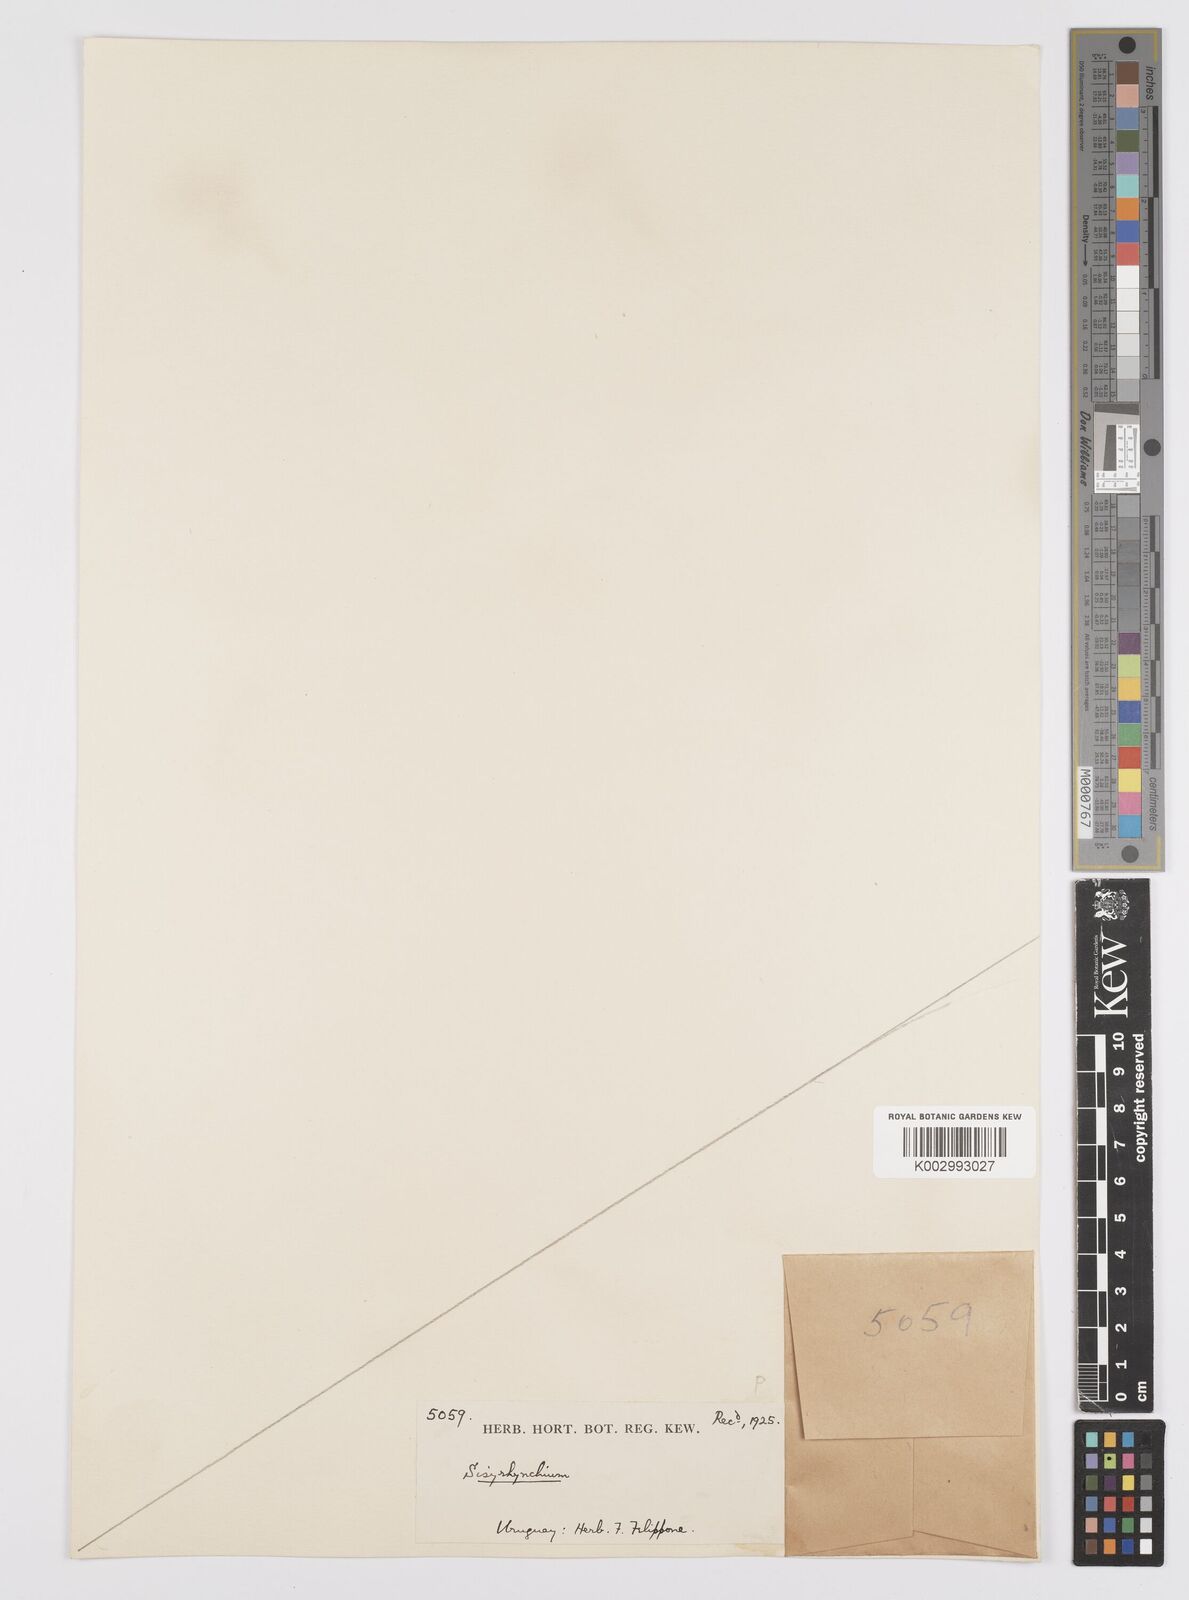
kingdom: Plantae
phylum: Tracheophyta
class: Liliopsida
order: Asparagales
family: Iridaceae
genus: Sisyrinchium
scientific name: Sisyrinchium
